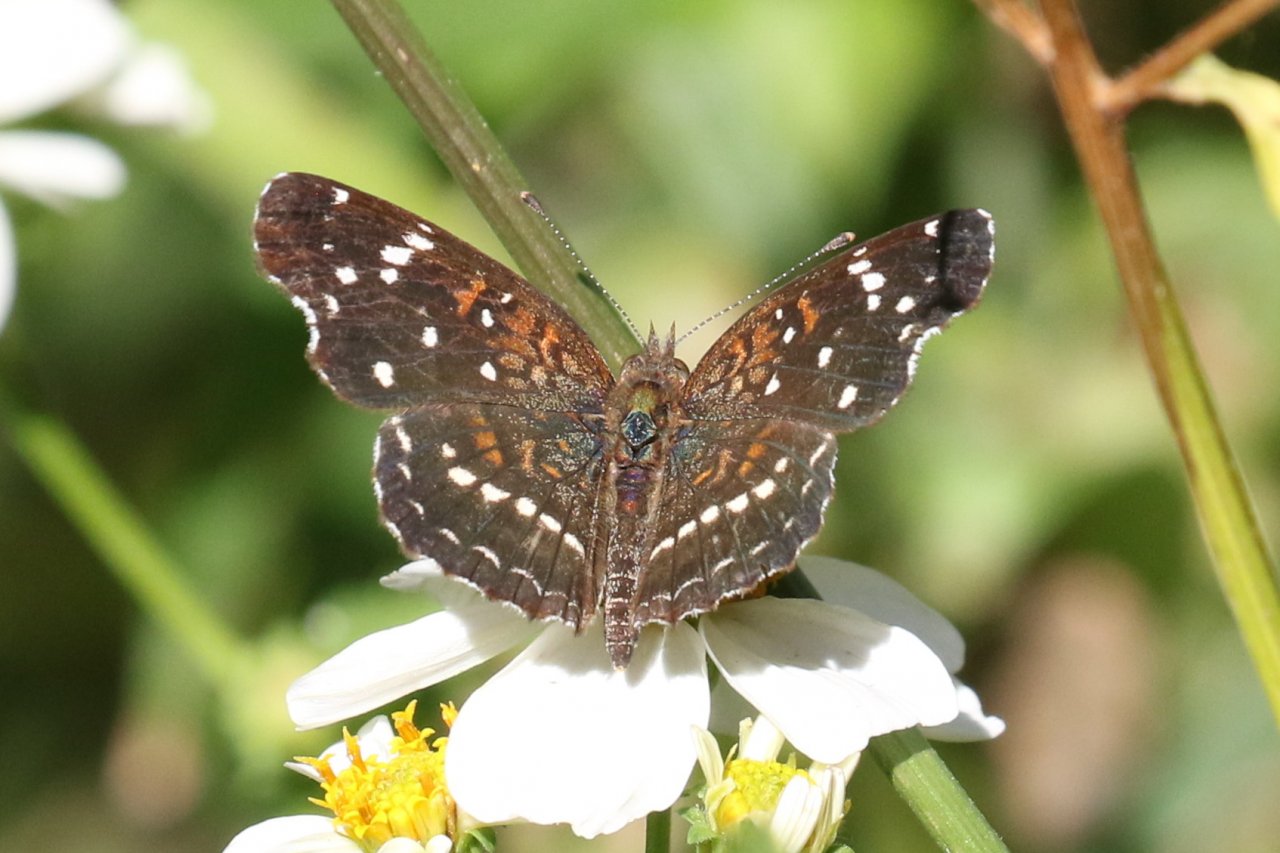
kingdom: Animalia
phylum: Arthropoda
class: Insecta
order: Lepidoptera
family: Nymphalidae
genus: Anthanassa
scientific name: Anthanassa texana
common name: Texan Crescent
